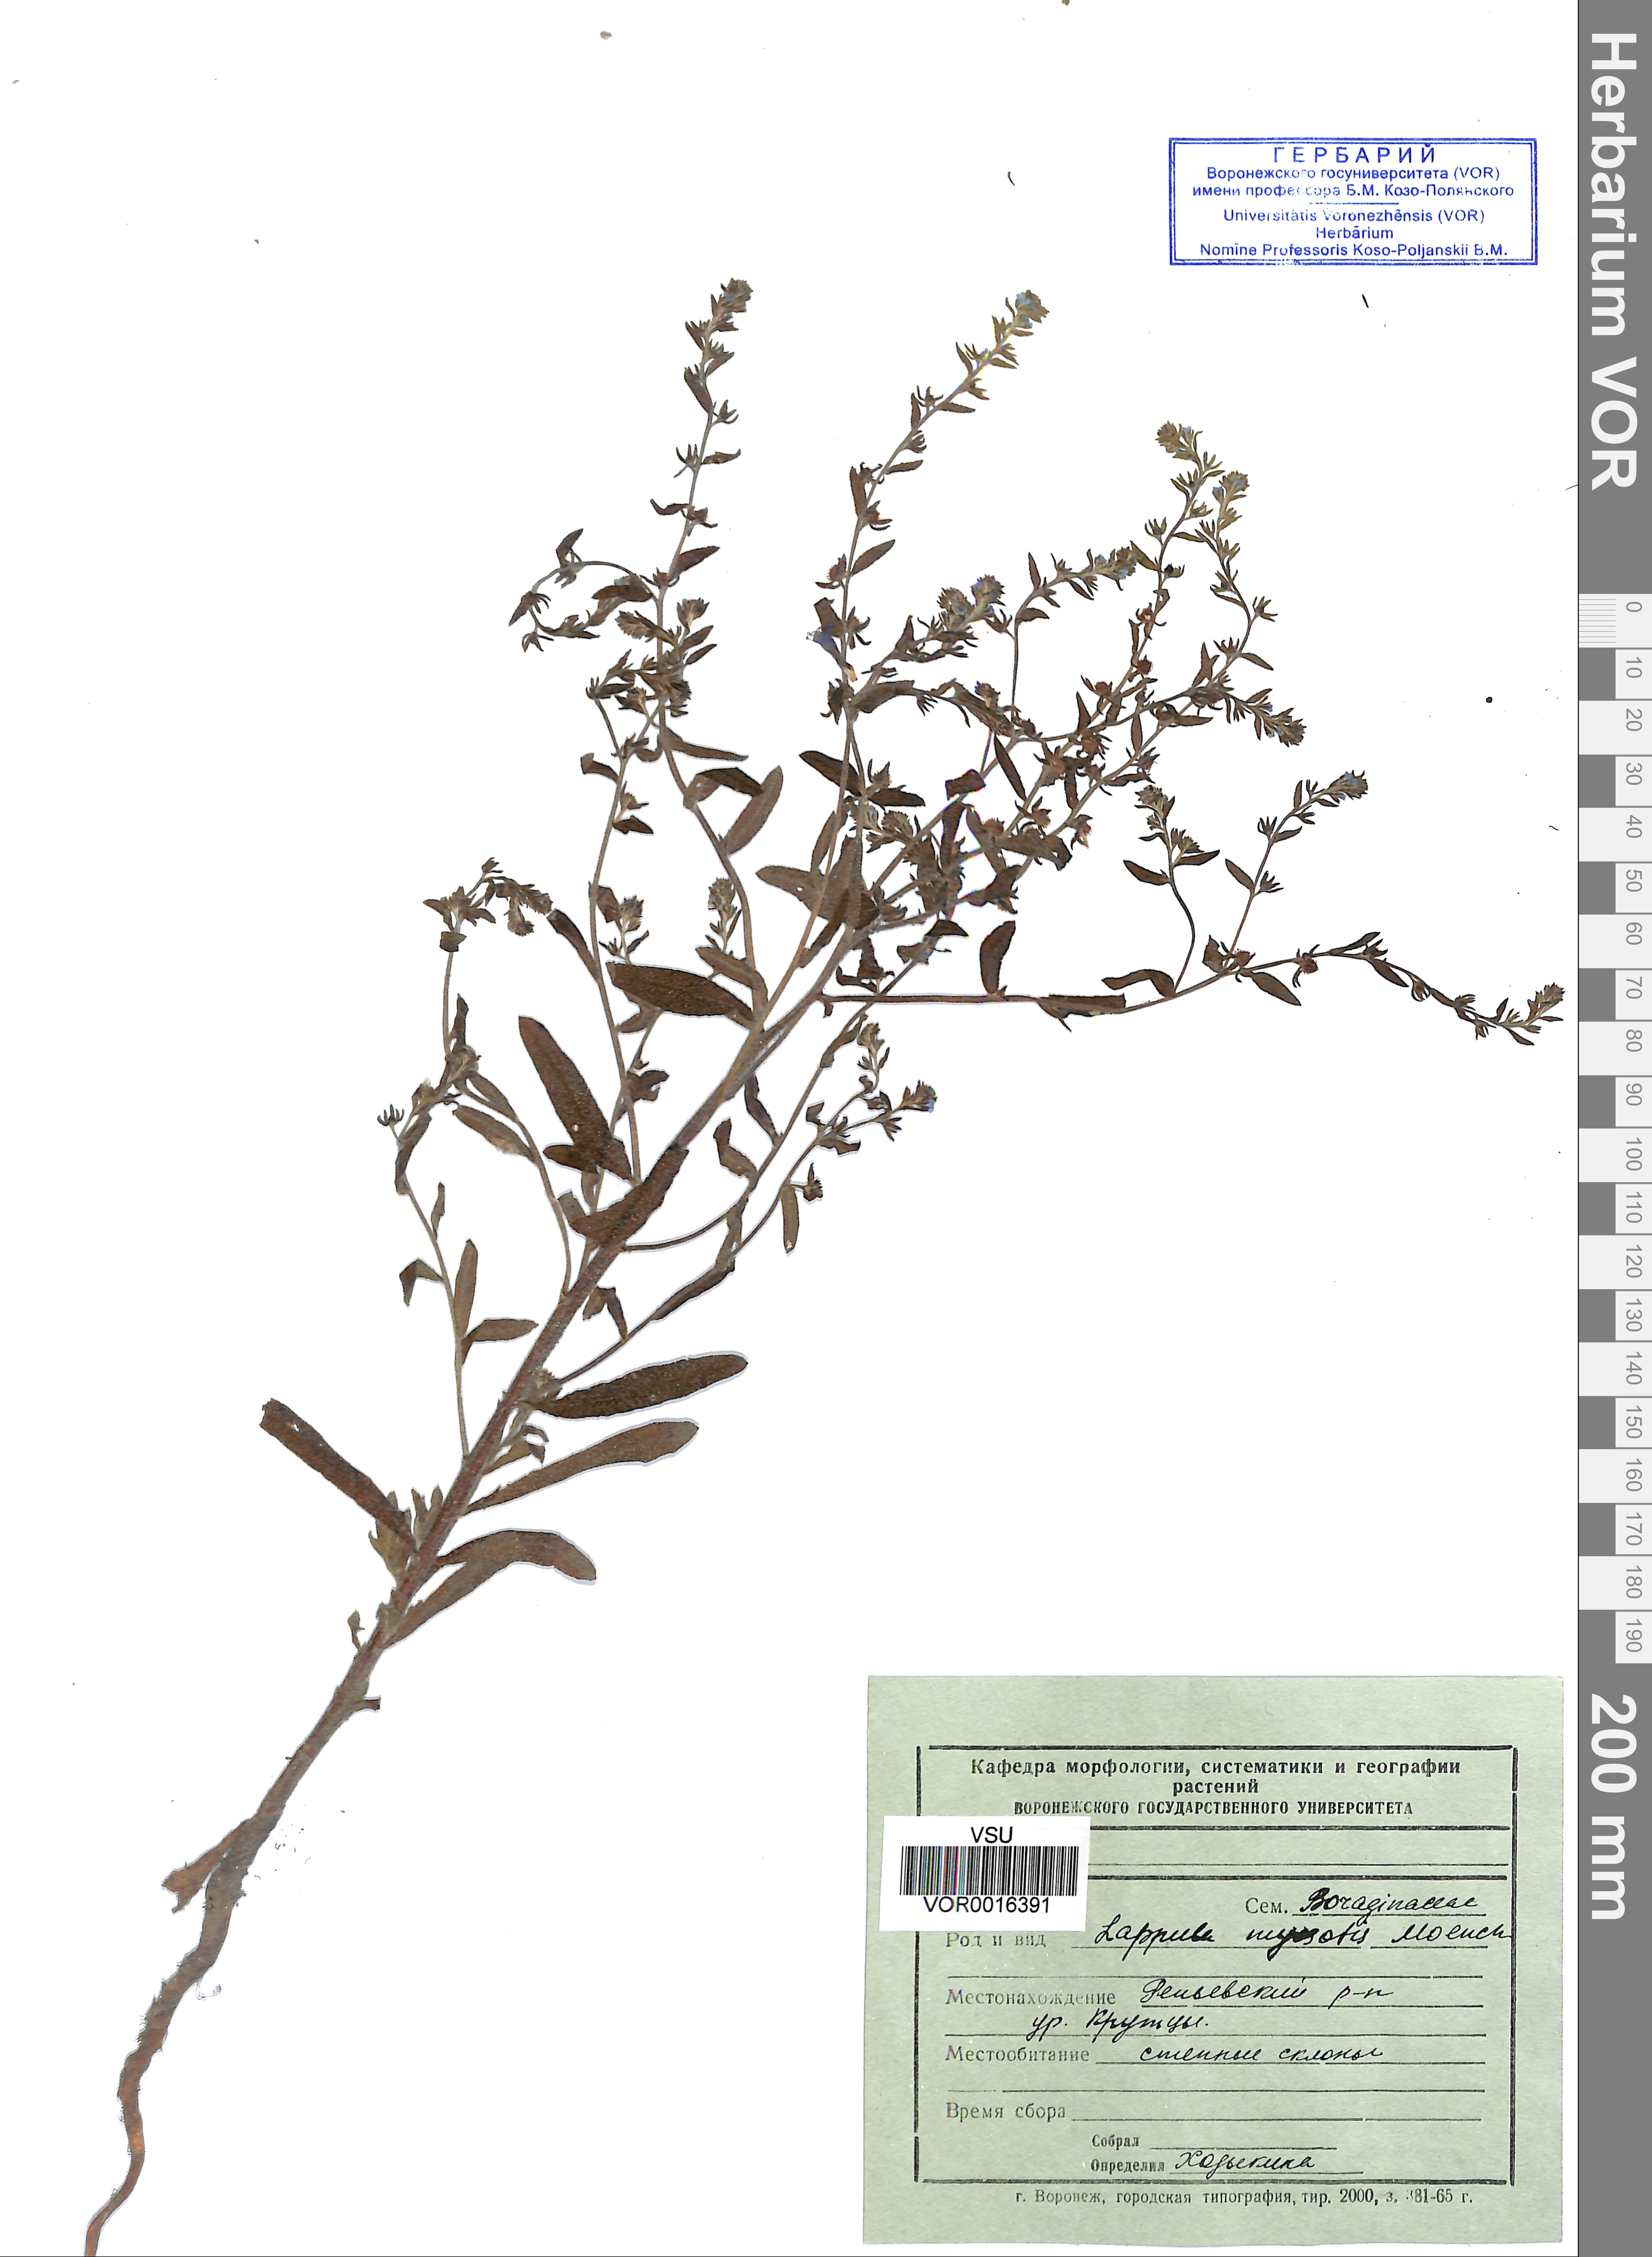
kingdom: Plantae
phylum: Tracheophyta
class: Magnoliopsida
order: Boraginales
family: Boraginaceae
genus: Lappula
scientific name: Lappula squarrosa
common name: European stickseed
